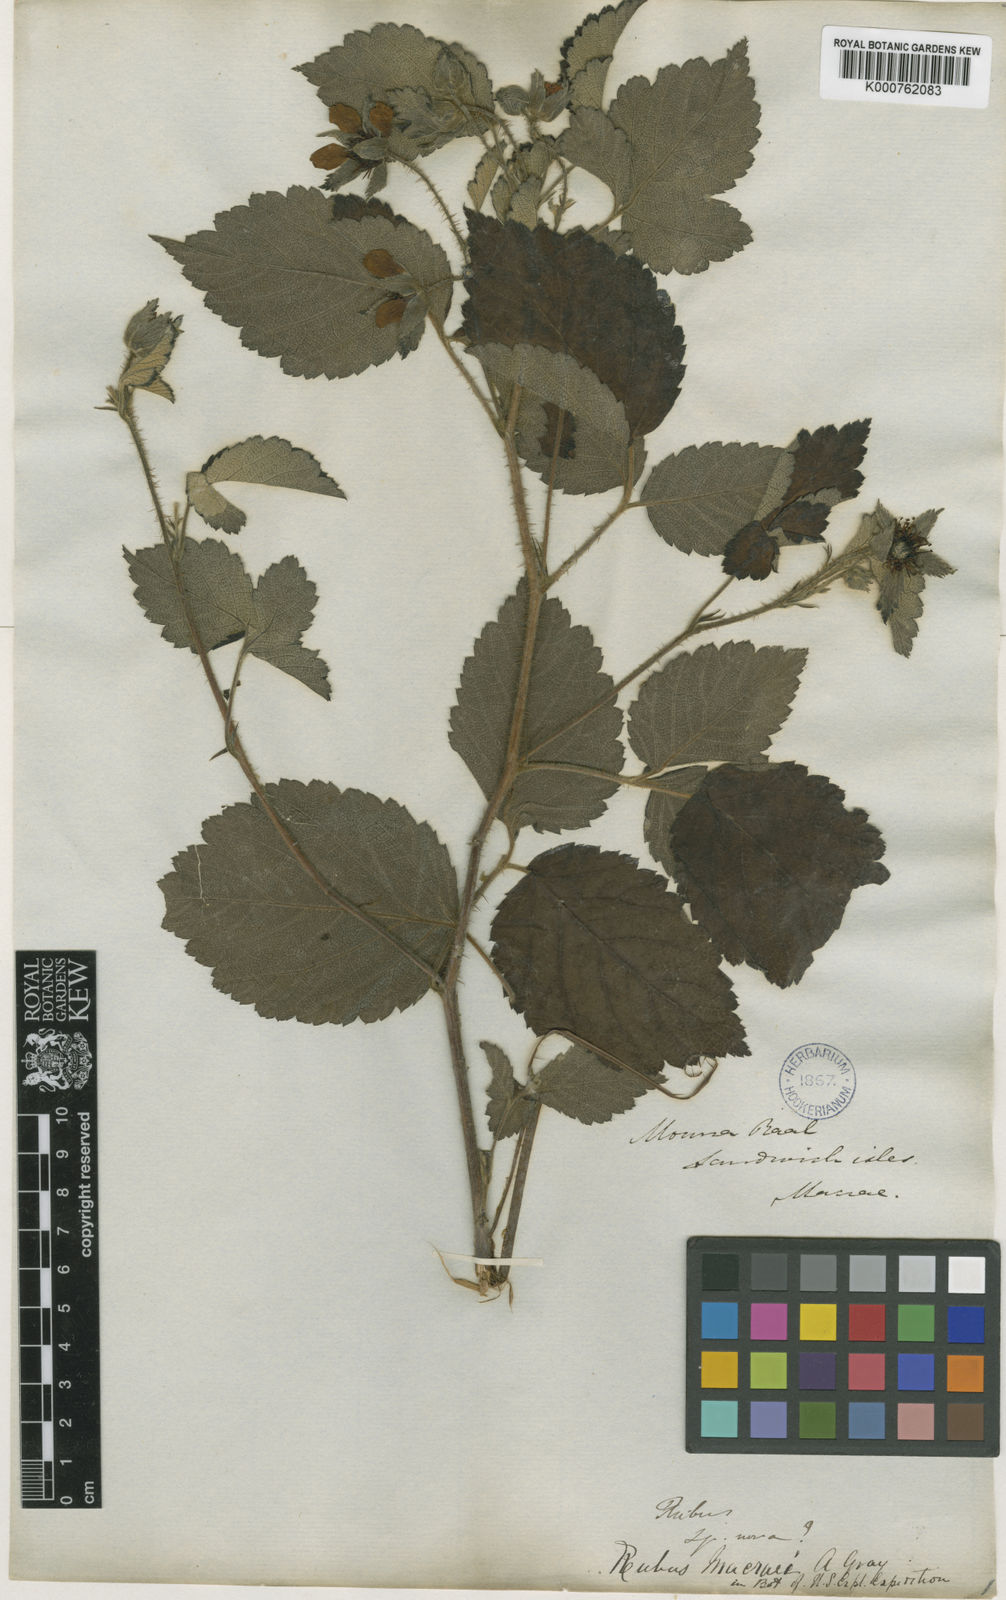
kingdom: Plantae
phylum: Tracheophyta
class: Magnoliopsida
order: Rosales
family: Rosaceae
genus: Rubus
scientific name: Rubus macraei
